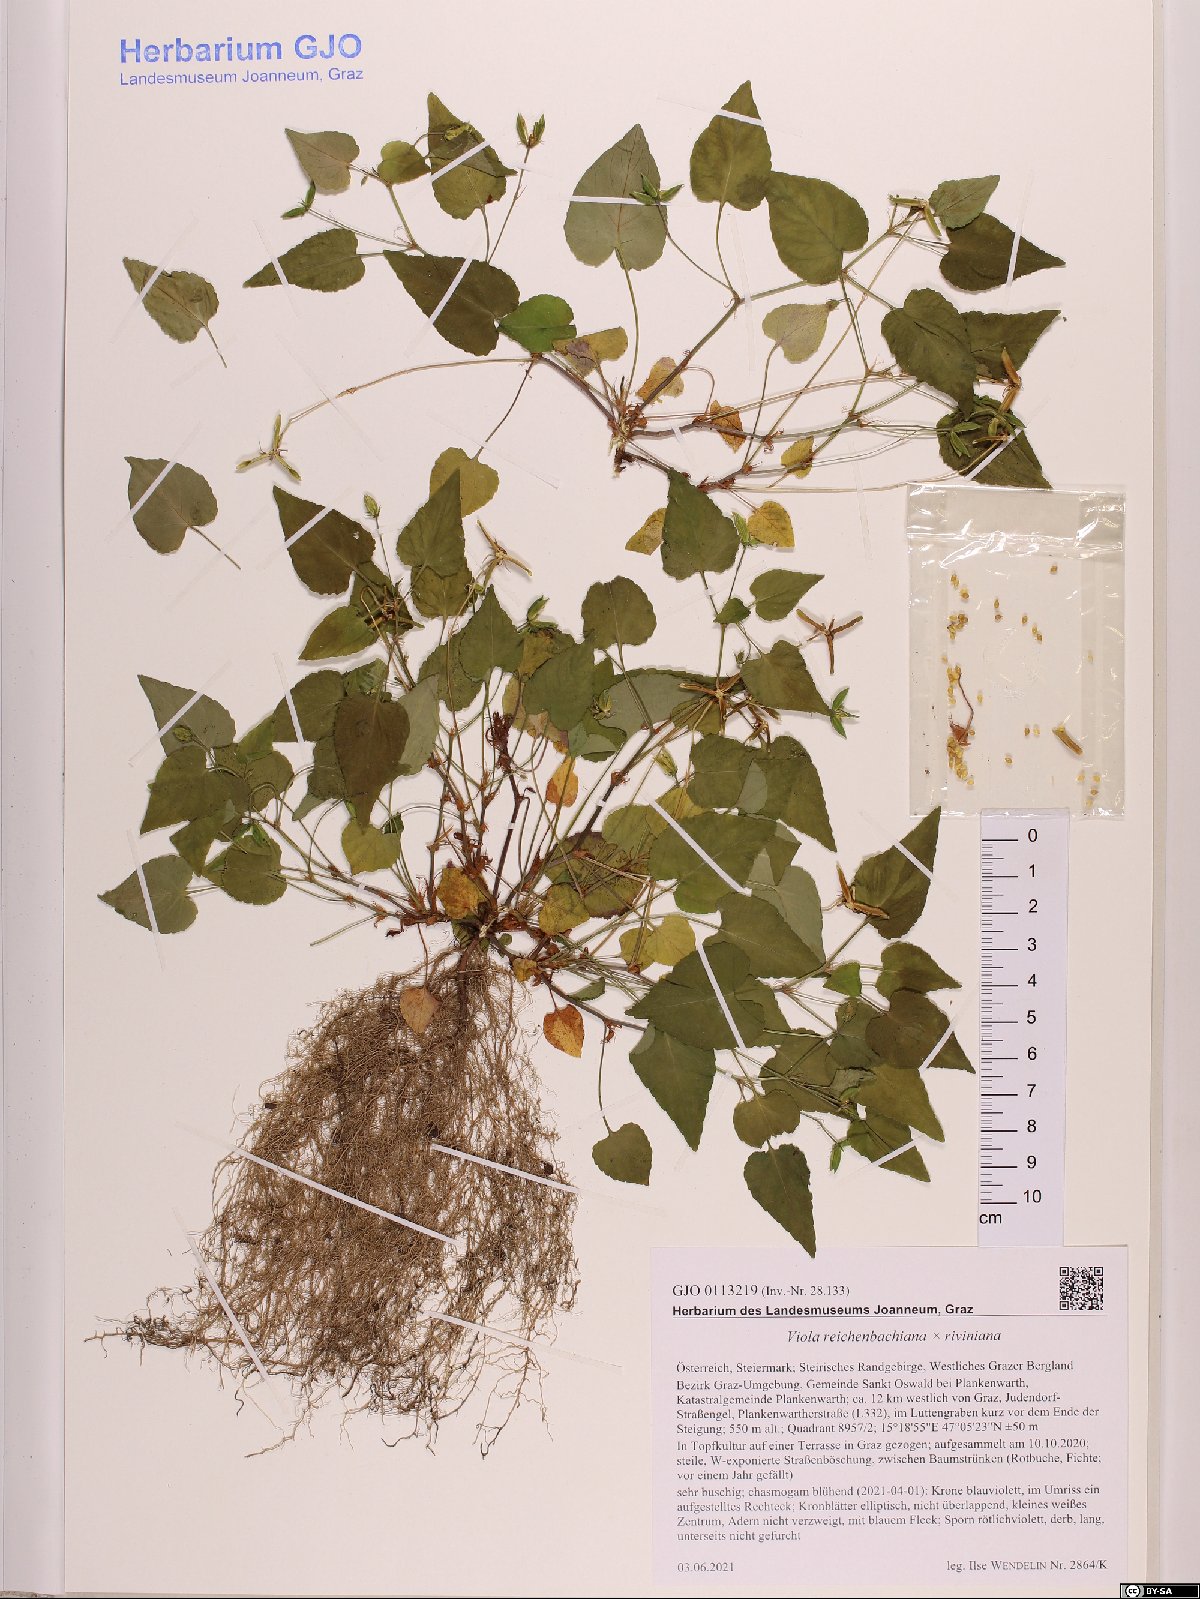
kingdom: Plantae
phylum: Tracheophyta
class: Magnoliopsida
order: Malpighiales
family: Violaceae
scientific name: Violaceae
